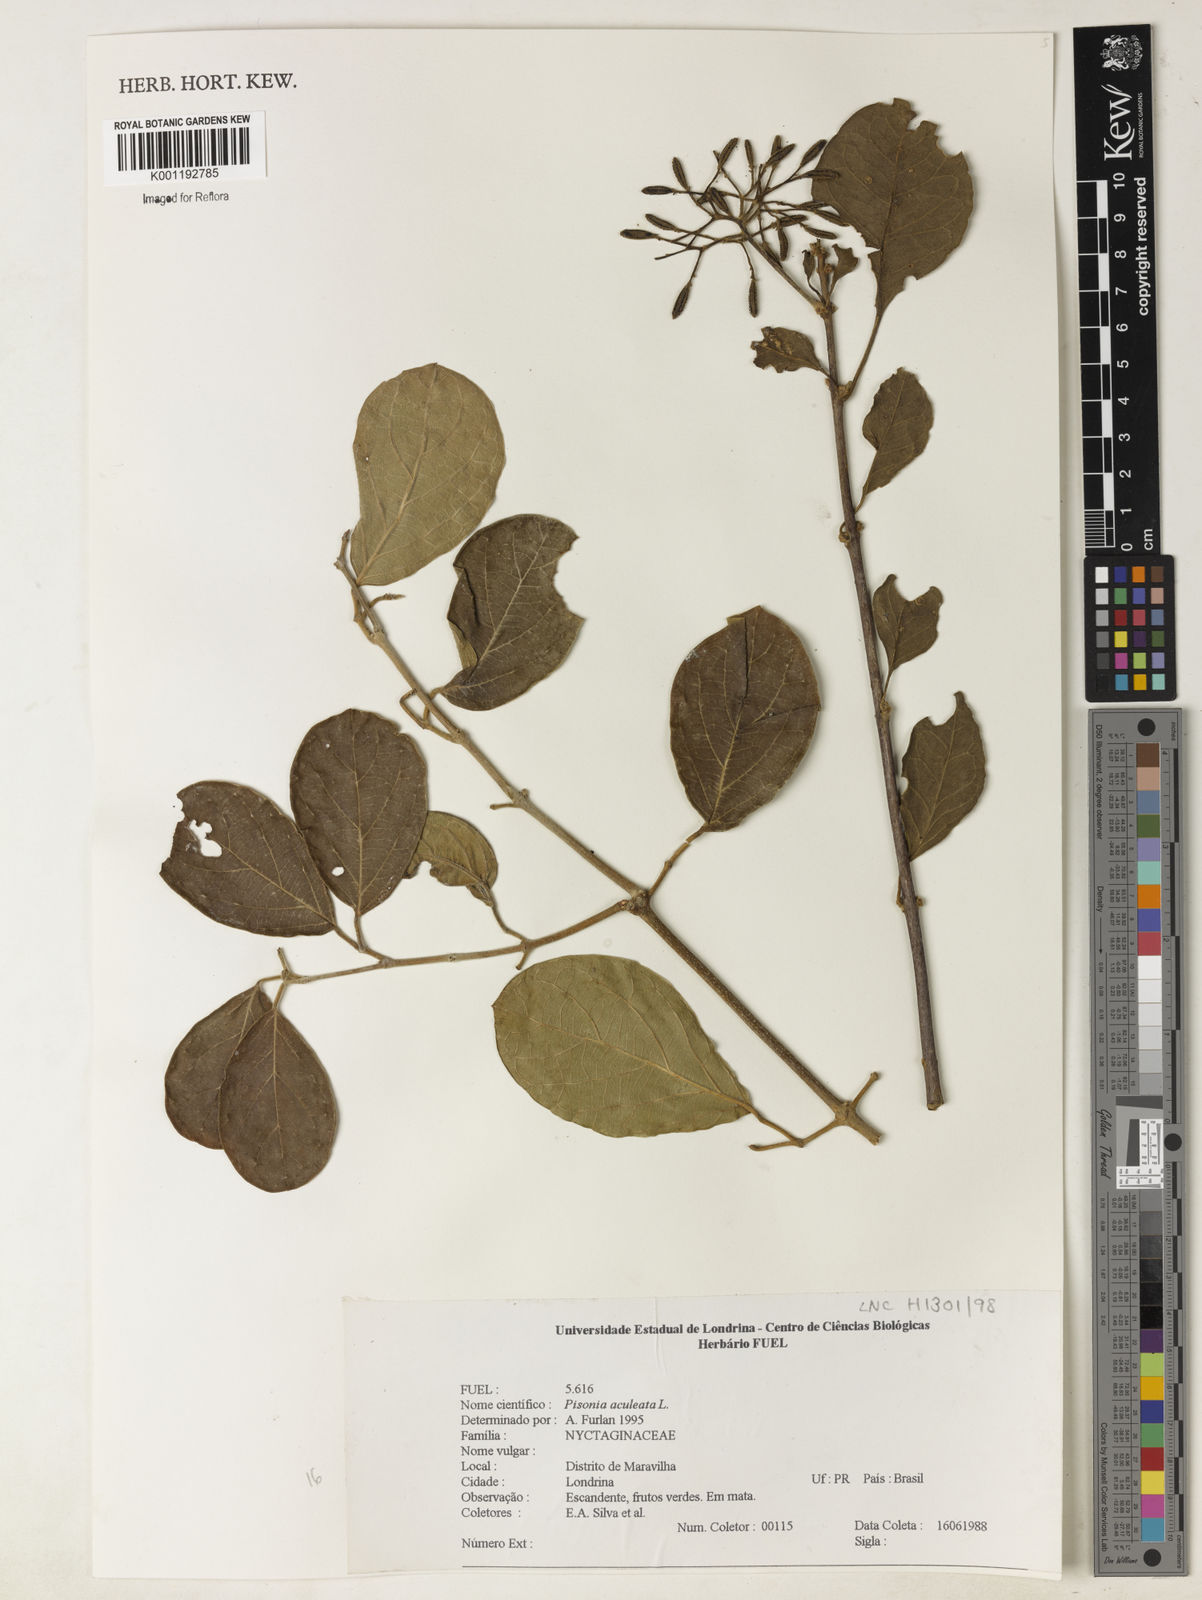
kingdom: Plantae
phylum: Tracheophyta
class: Magnoliopsida
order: Caryophyllales
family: Nyctaginaceae
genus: Pisonia
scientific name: Pisonia aculeata
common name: Cockspur vine
